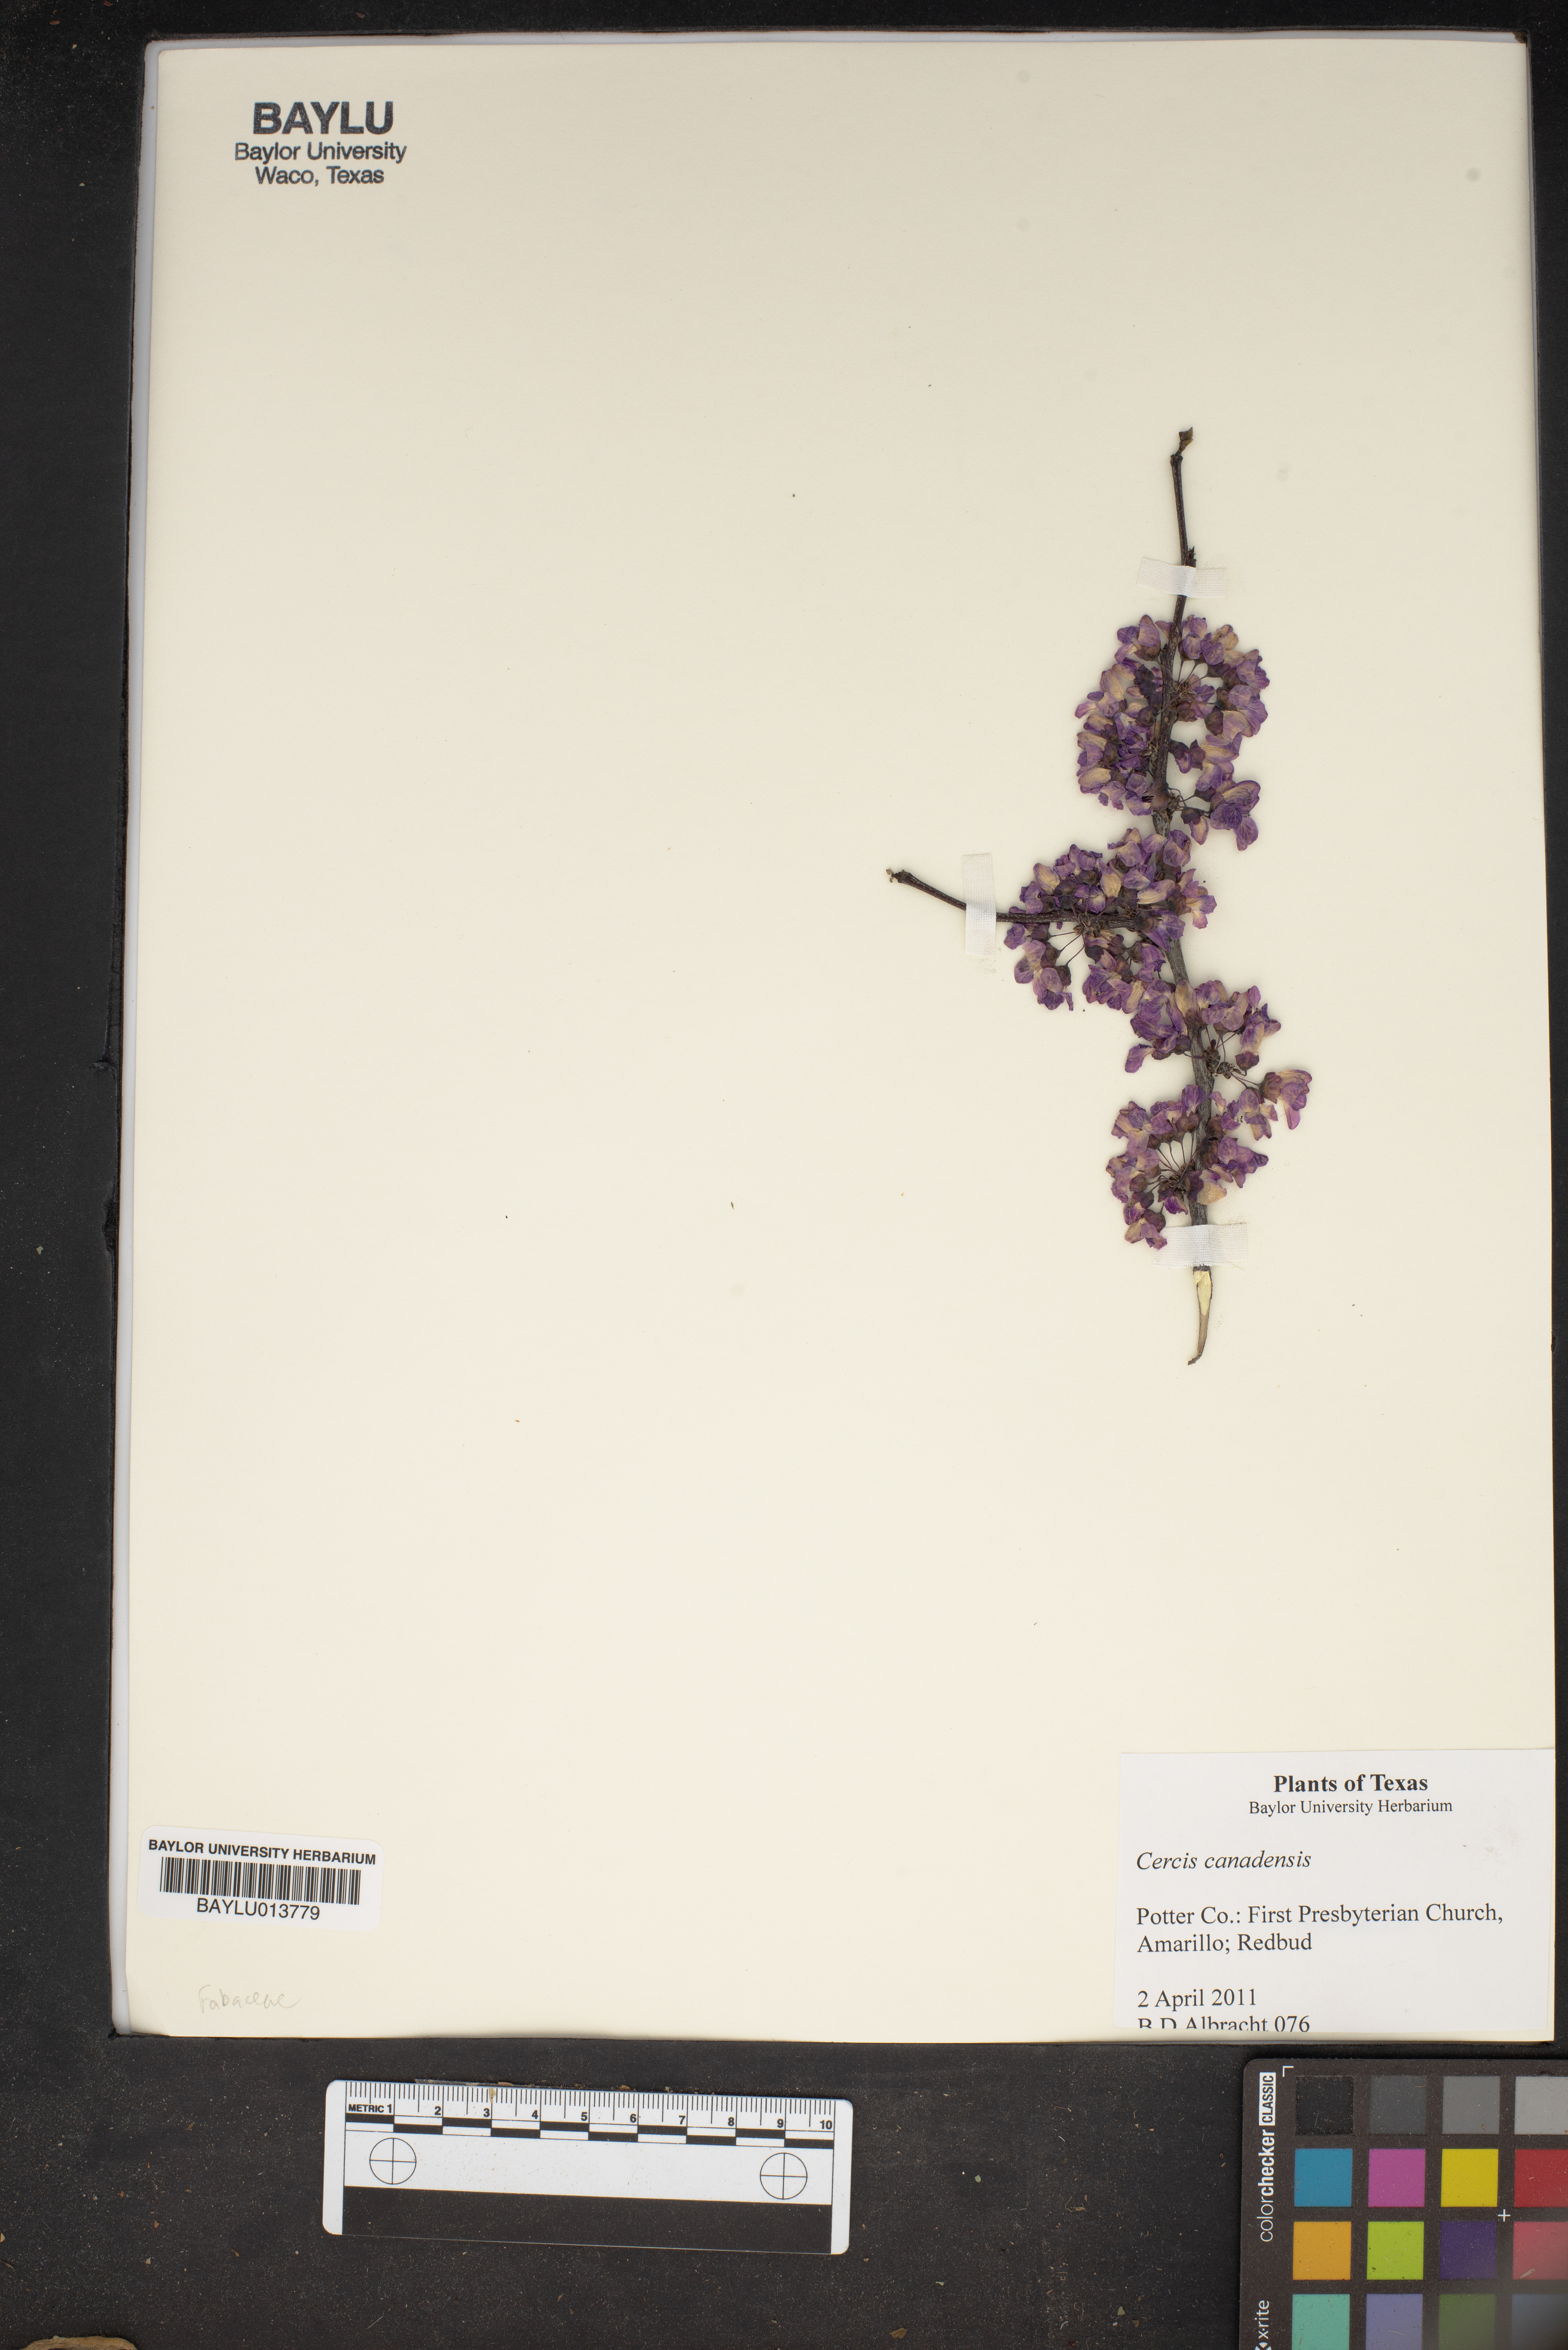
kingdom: Plantae
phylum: Tracheophyta
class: Magnoliopsida
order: Fabales
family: Fabaceae
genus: Cercis
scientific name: Cercis canadensis
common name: Eastern redbud
